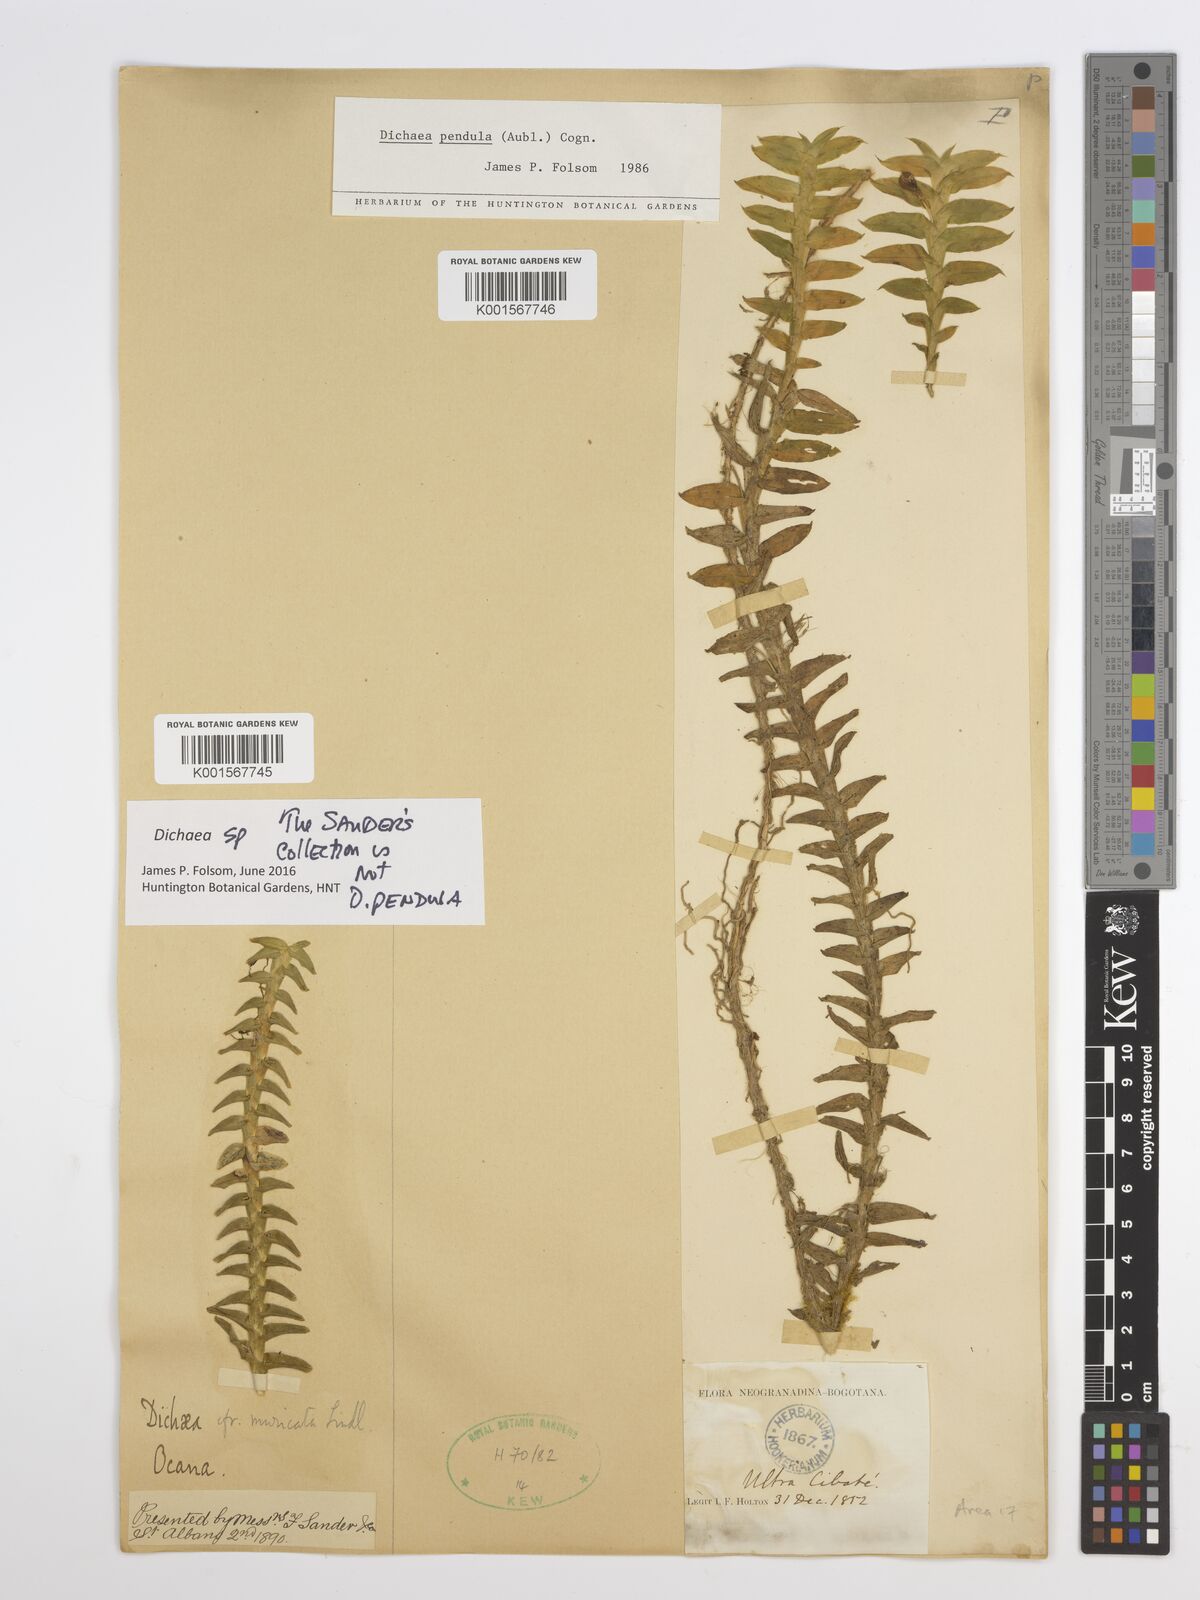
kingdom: Plantae
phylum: Tracheophyta
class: Liliopsida
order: Asparagales
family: Orchidaceae
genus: Dichaea
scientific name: Dichaea pendula
